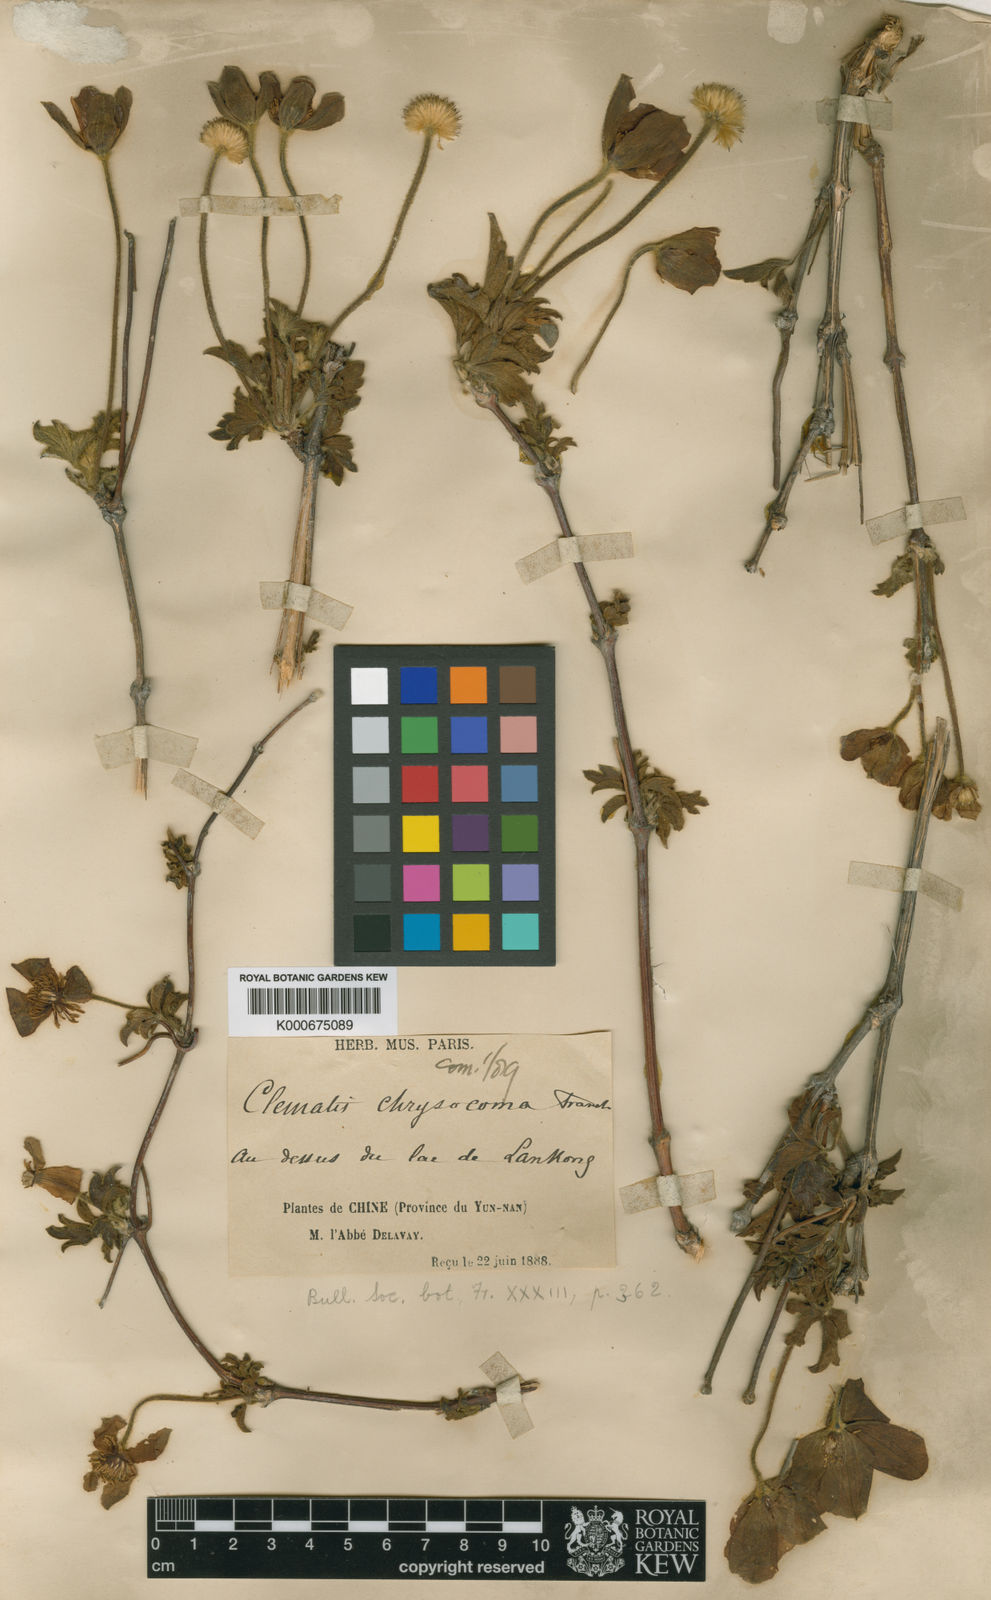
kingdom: Plantae
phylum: Tracheophyta
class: Magnoliopsida
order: Ranunculales
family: Ranunculaceae
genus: Clematis
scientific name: Clematis chrysocoma
